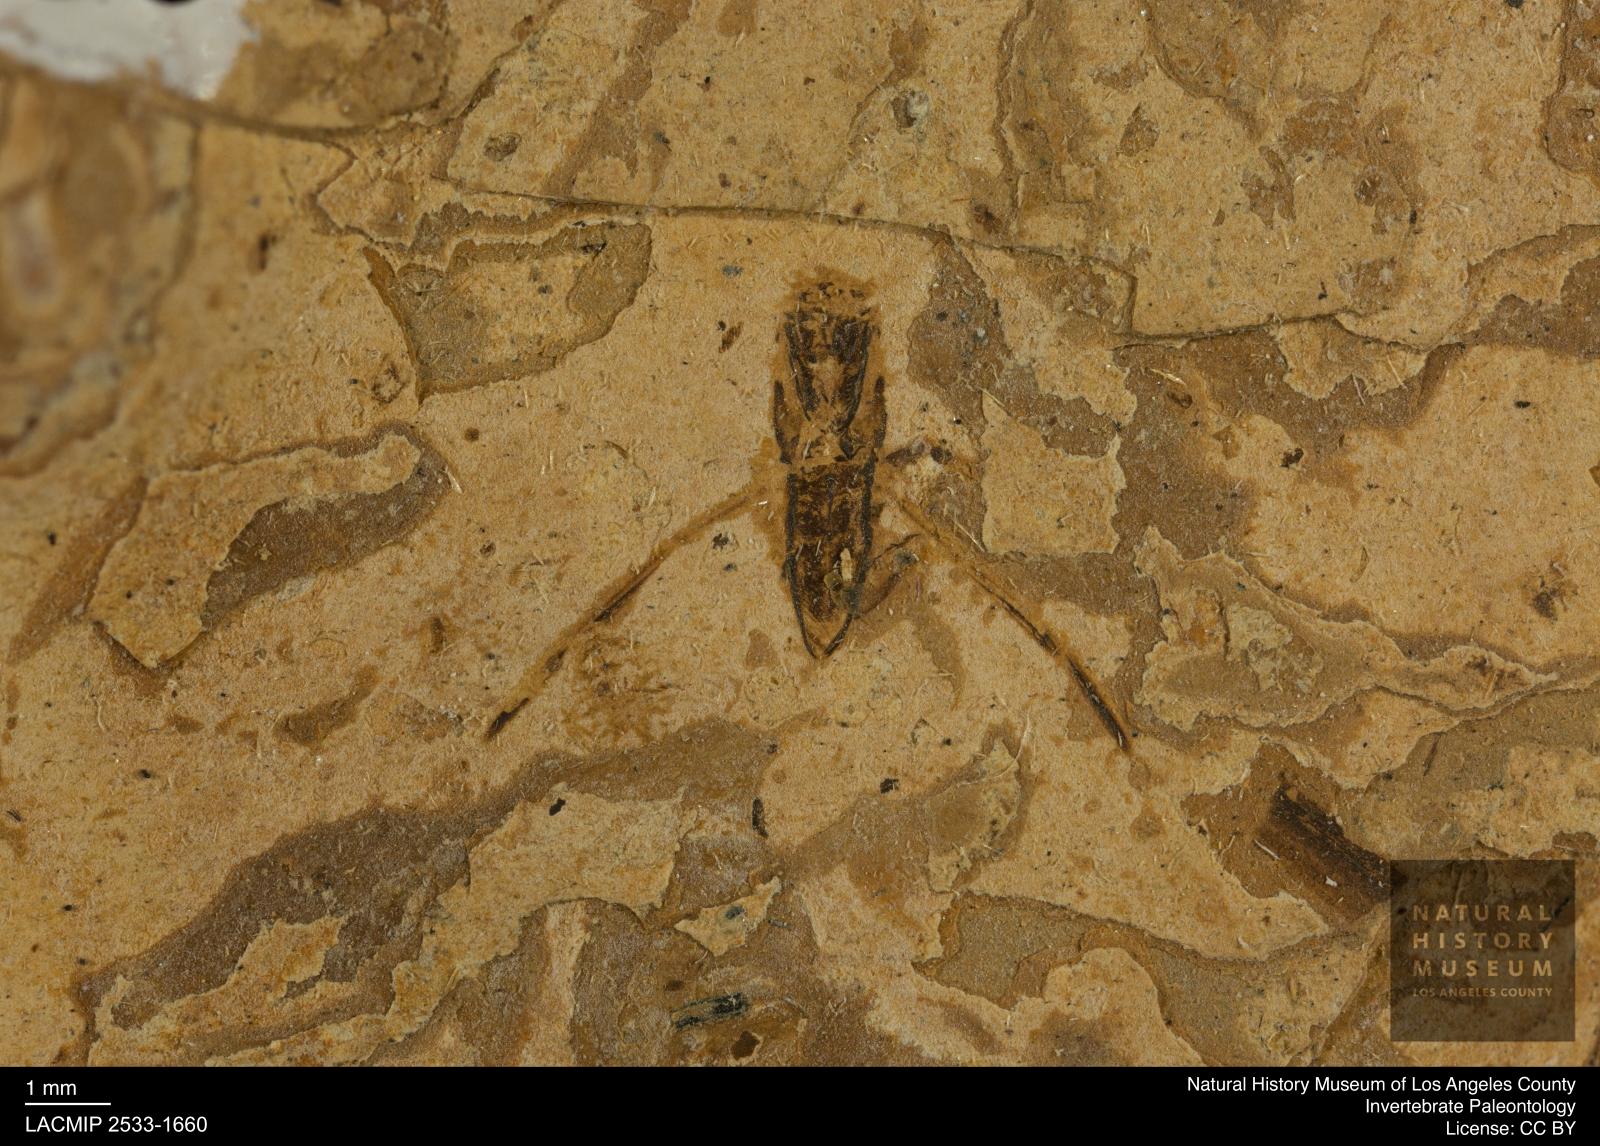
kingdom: Animalia
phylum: Arthropoda
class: Insecta
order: Hemiptera
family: Notonectidae
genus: Notonecta
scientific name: Notonecta
